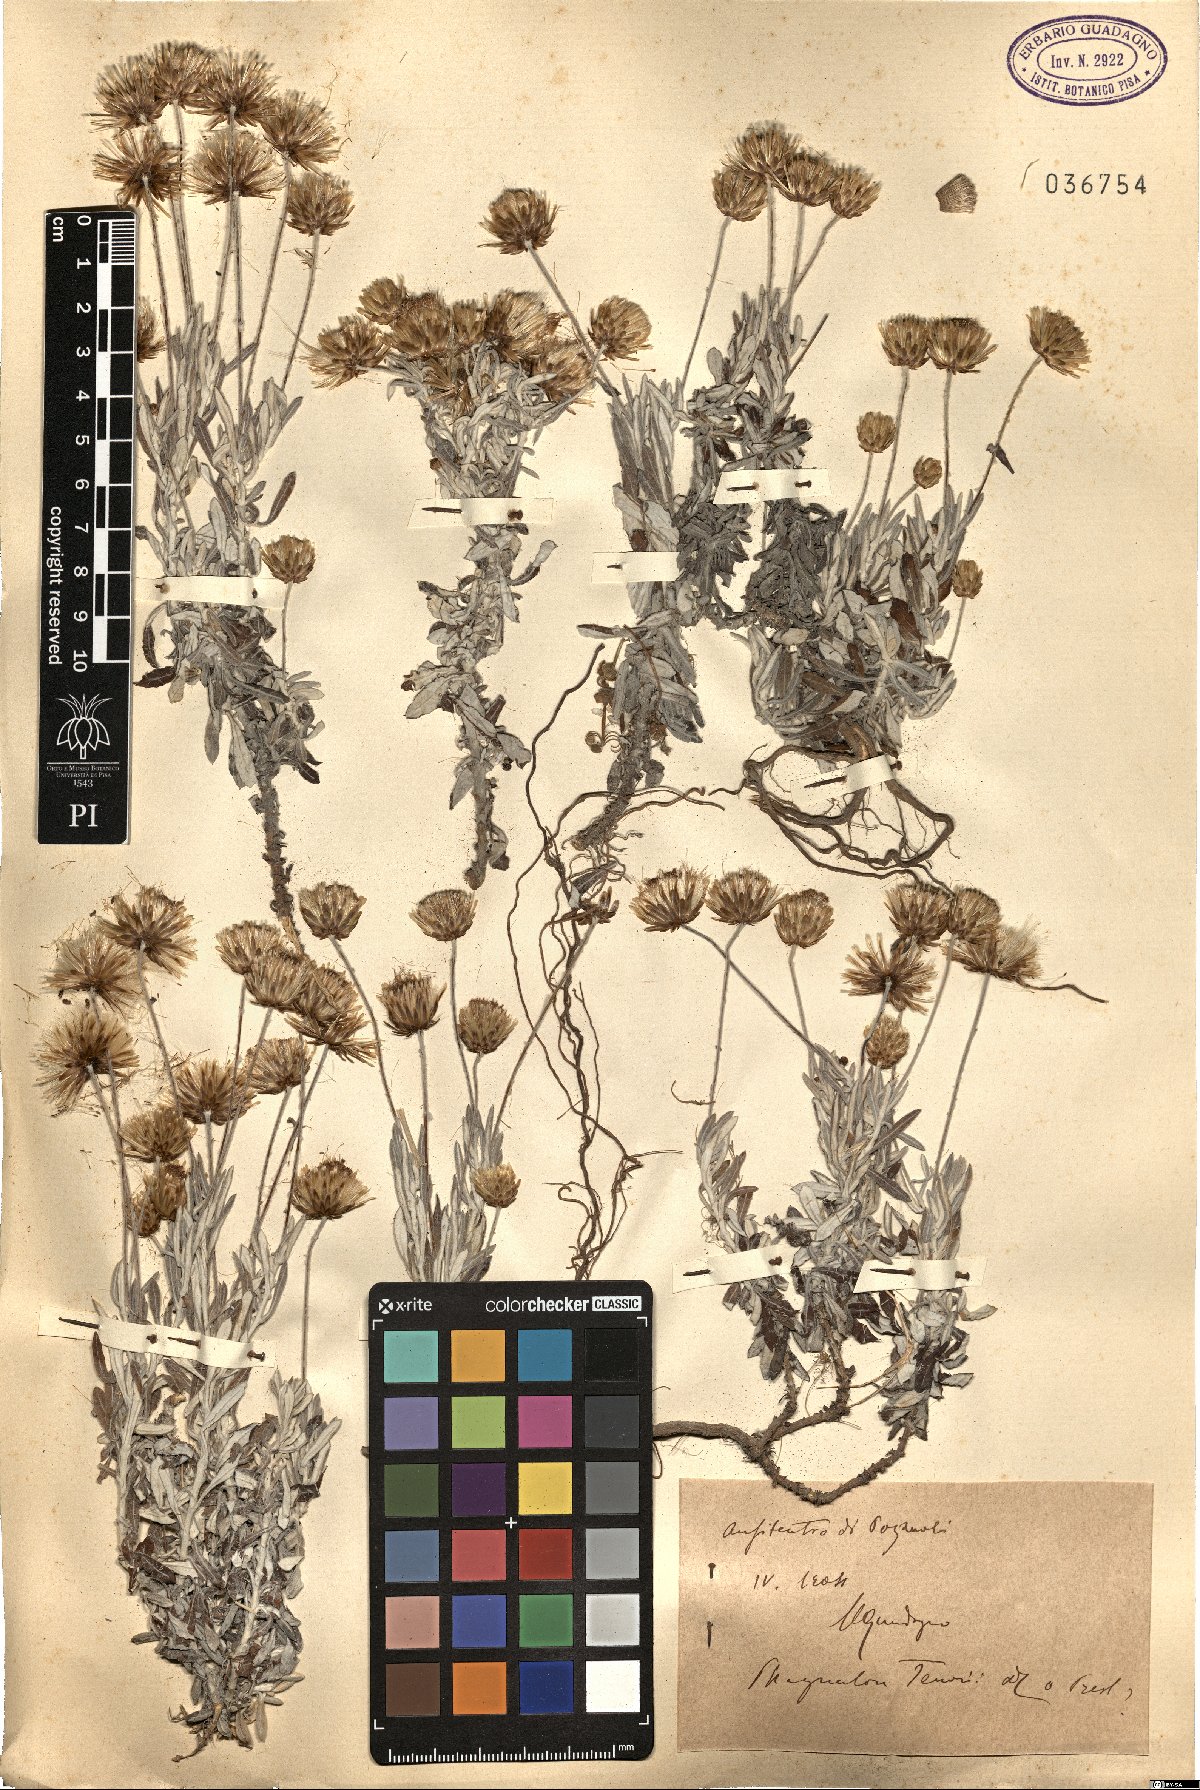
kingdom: Plantae
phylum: Tracheophyta
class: Magnoliopsida
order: Asterales
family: Asteraceae
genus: Phagnalon
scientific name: Phagnalon graecum
